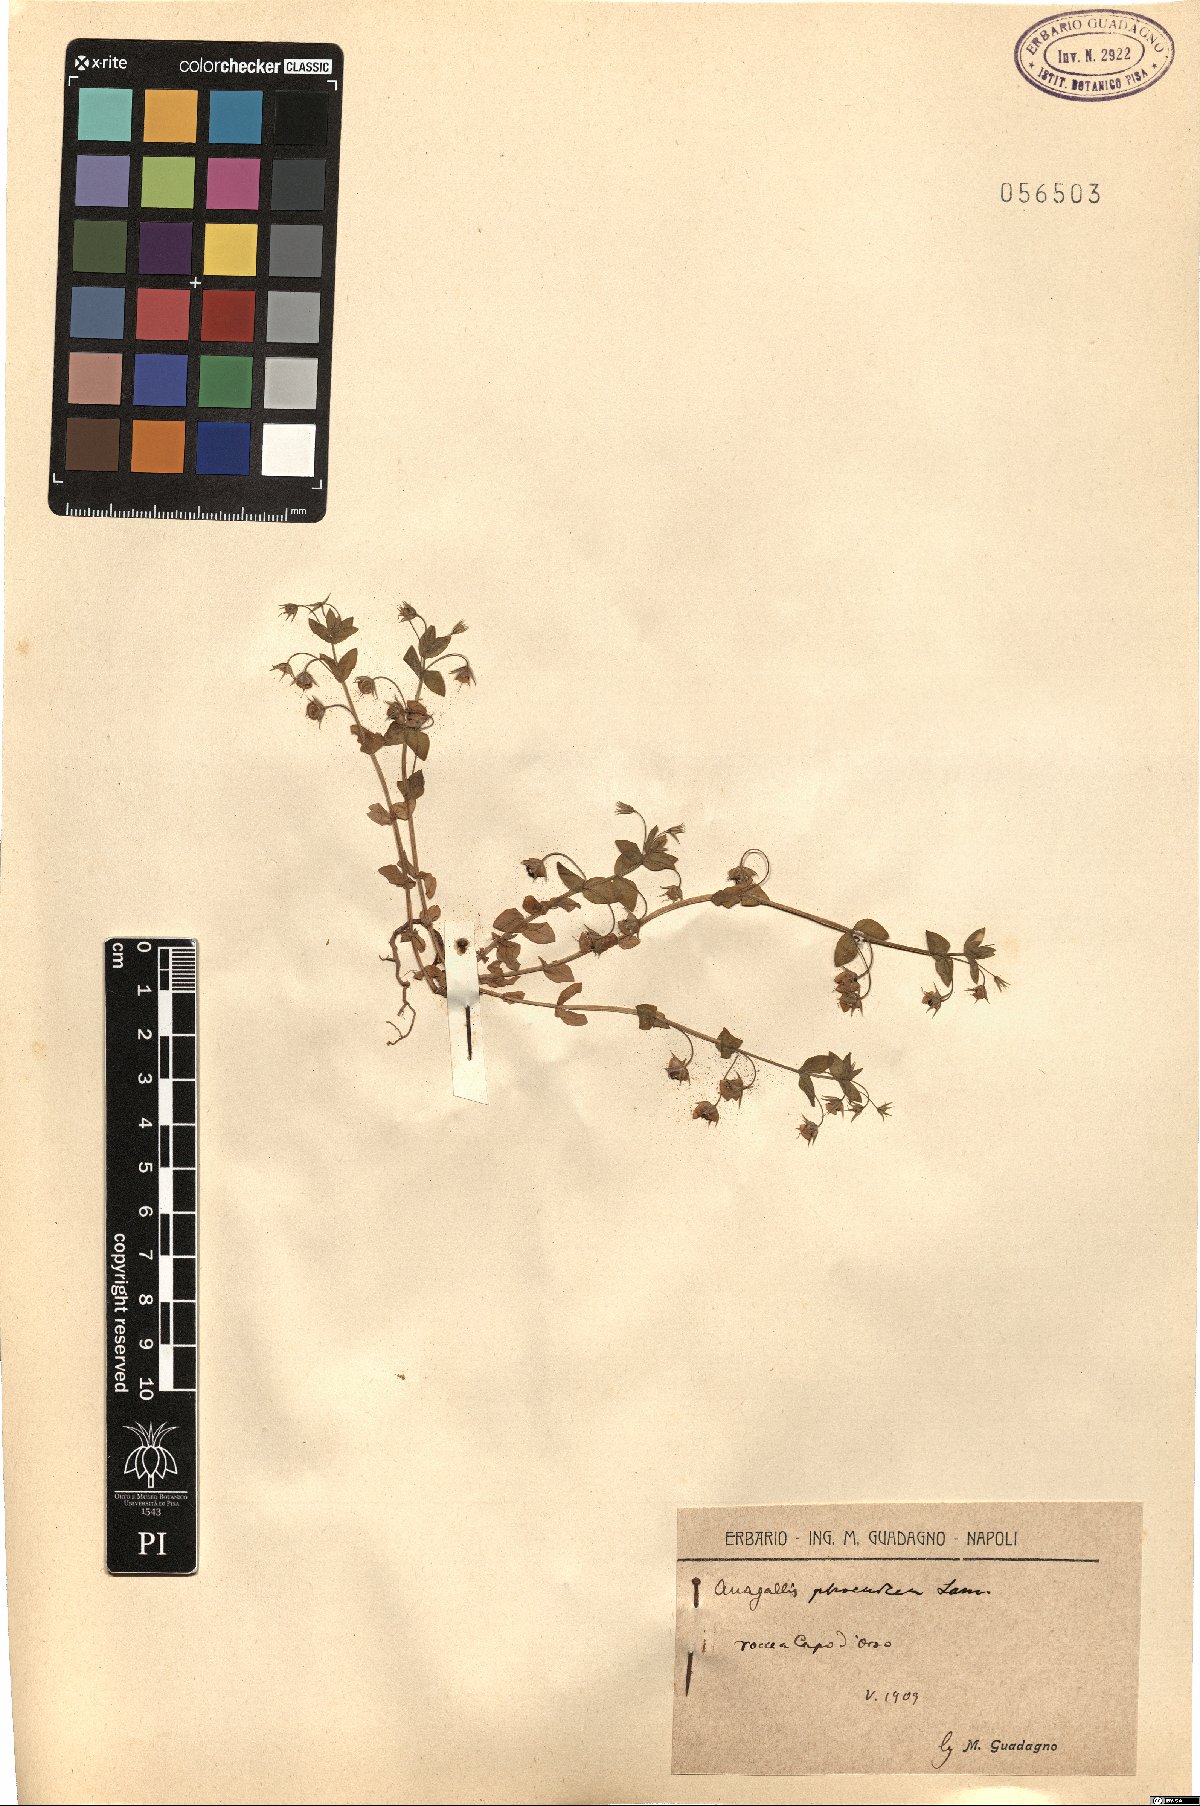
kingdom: Plantae
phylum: Tracheophyta
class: Magnoliopsida
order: Ericales
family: Primulaceae
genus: Lysimachia
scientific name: Lysimachia arvensis
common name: Scarlet pimpernel
